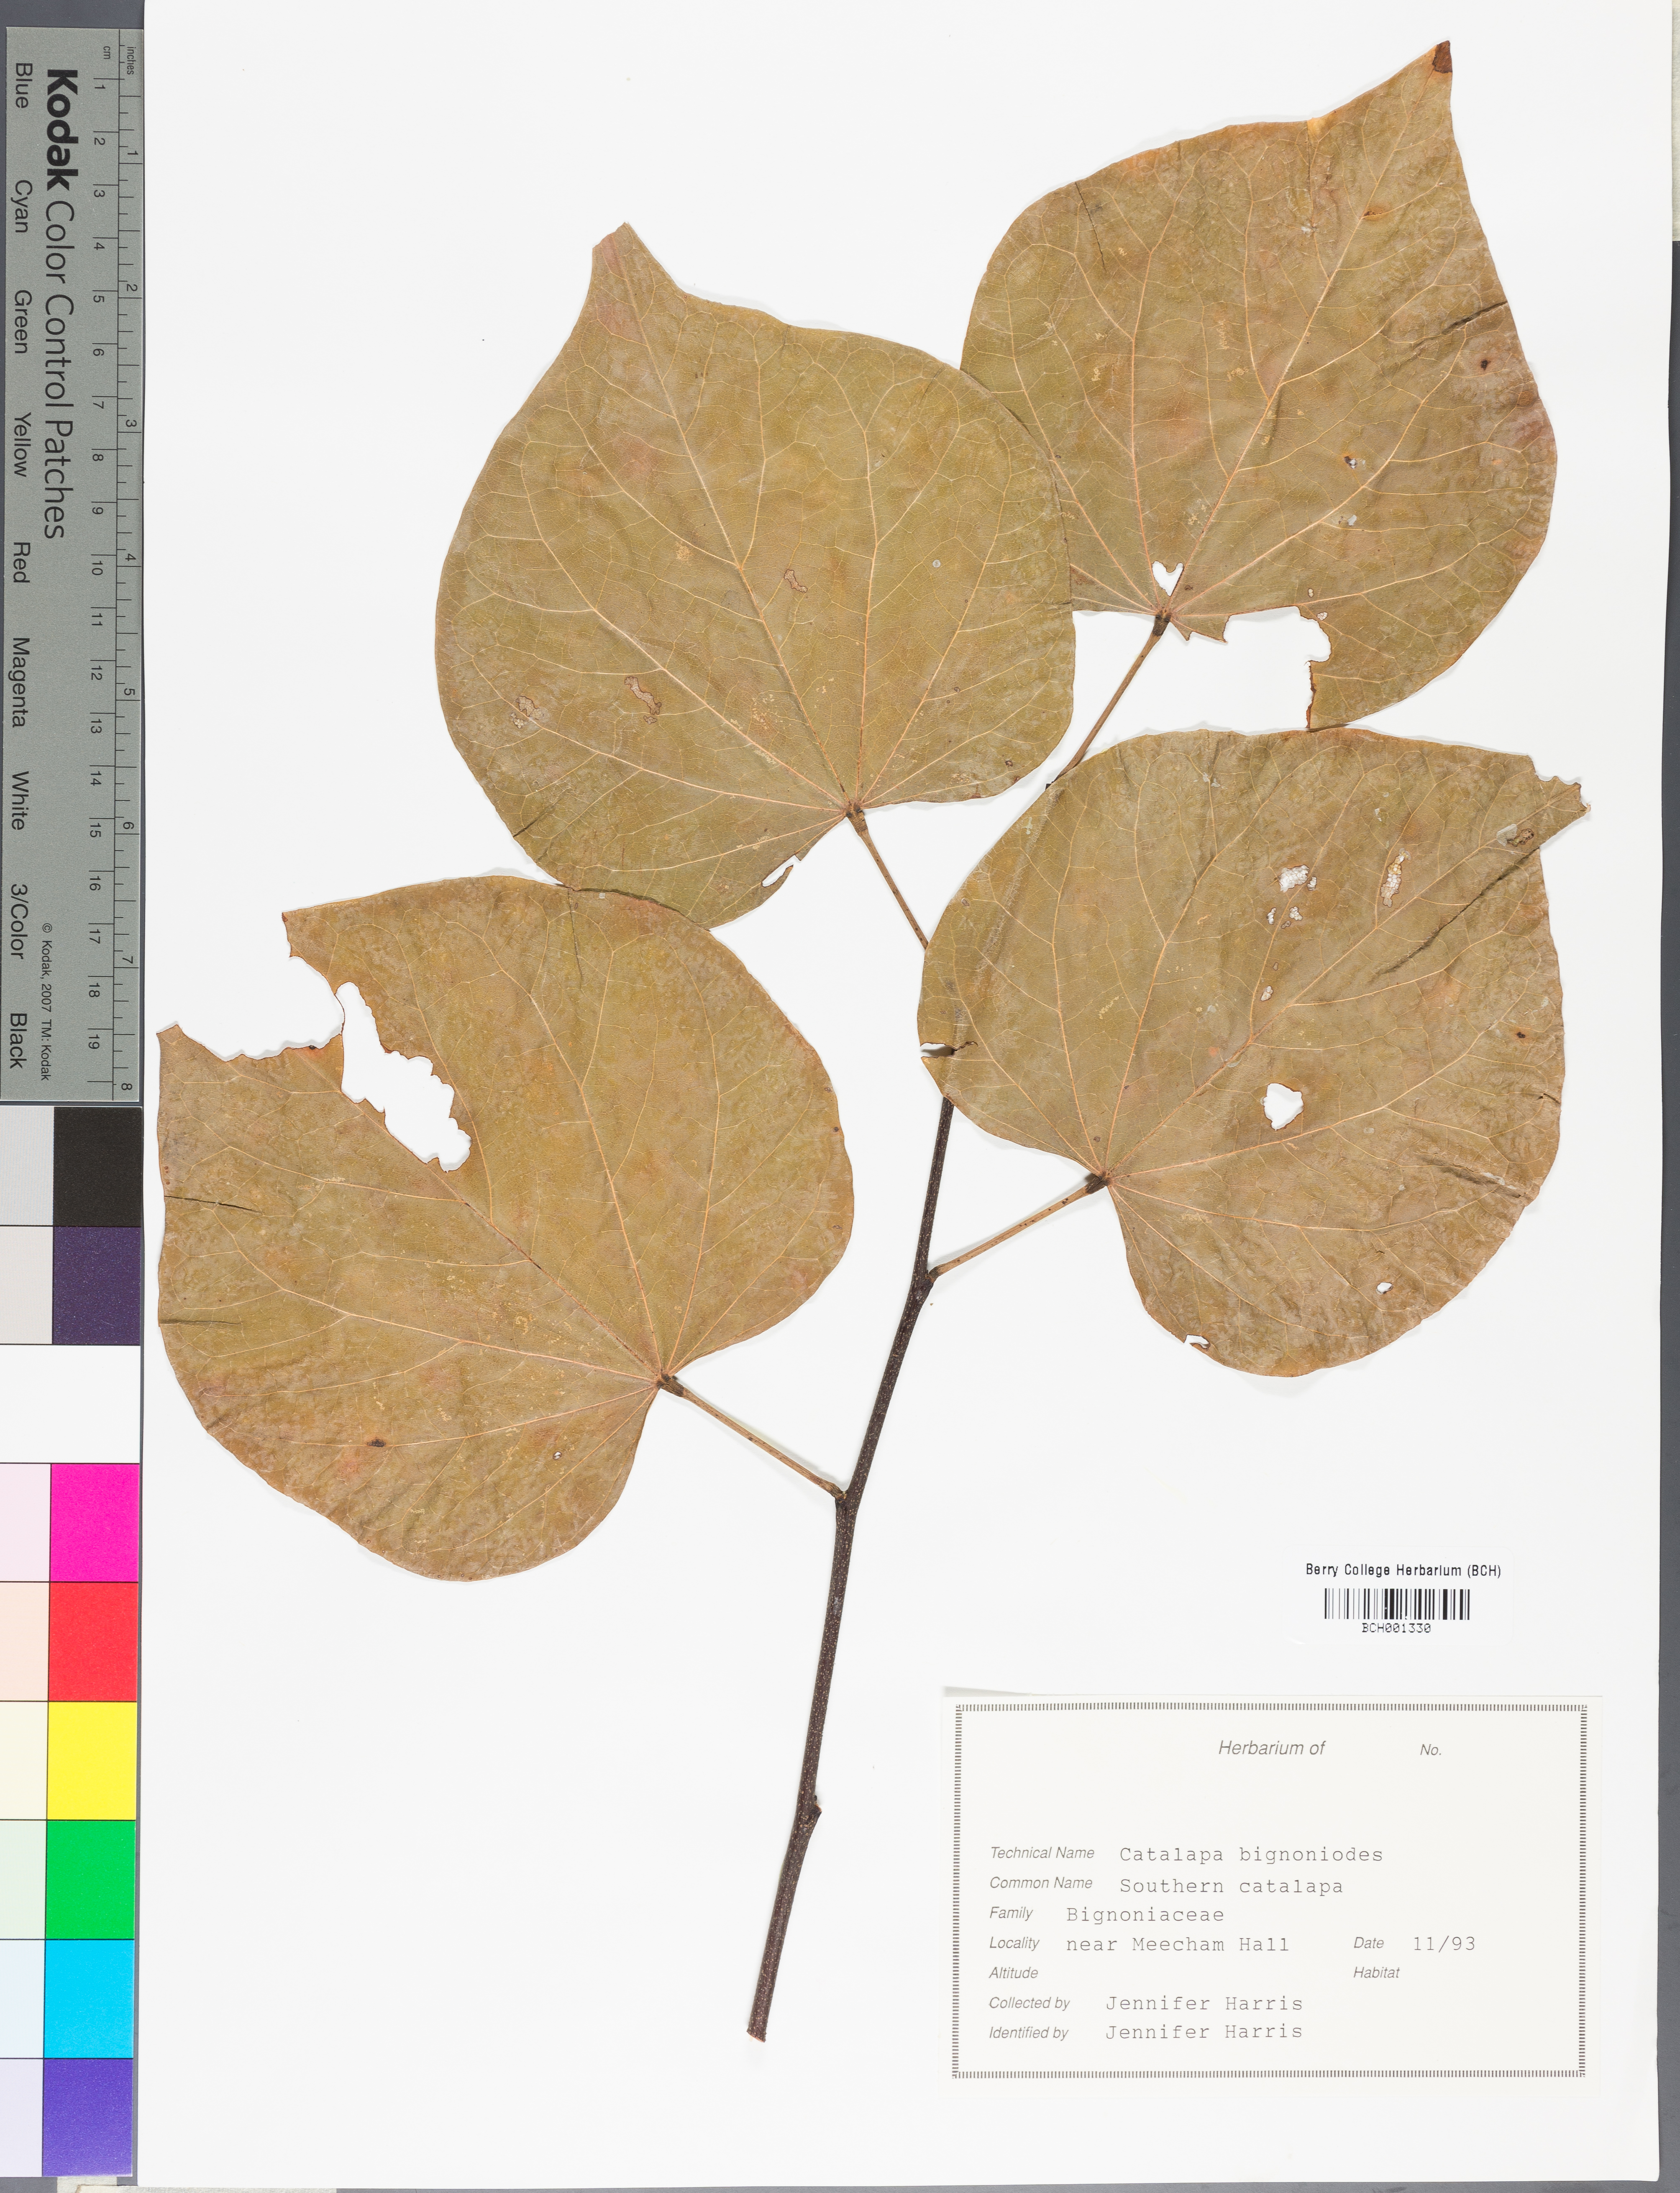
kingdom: Plantae
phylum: Tracheophyta
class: Magnoliopsida
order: Lamiales
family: Bignoniaceae
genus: Catalpa
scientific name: Catalpa bignonioides
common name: Southern catalpa
